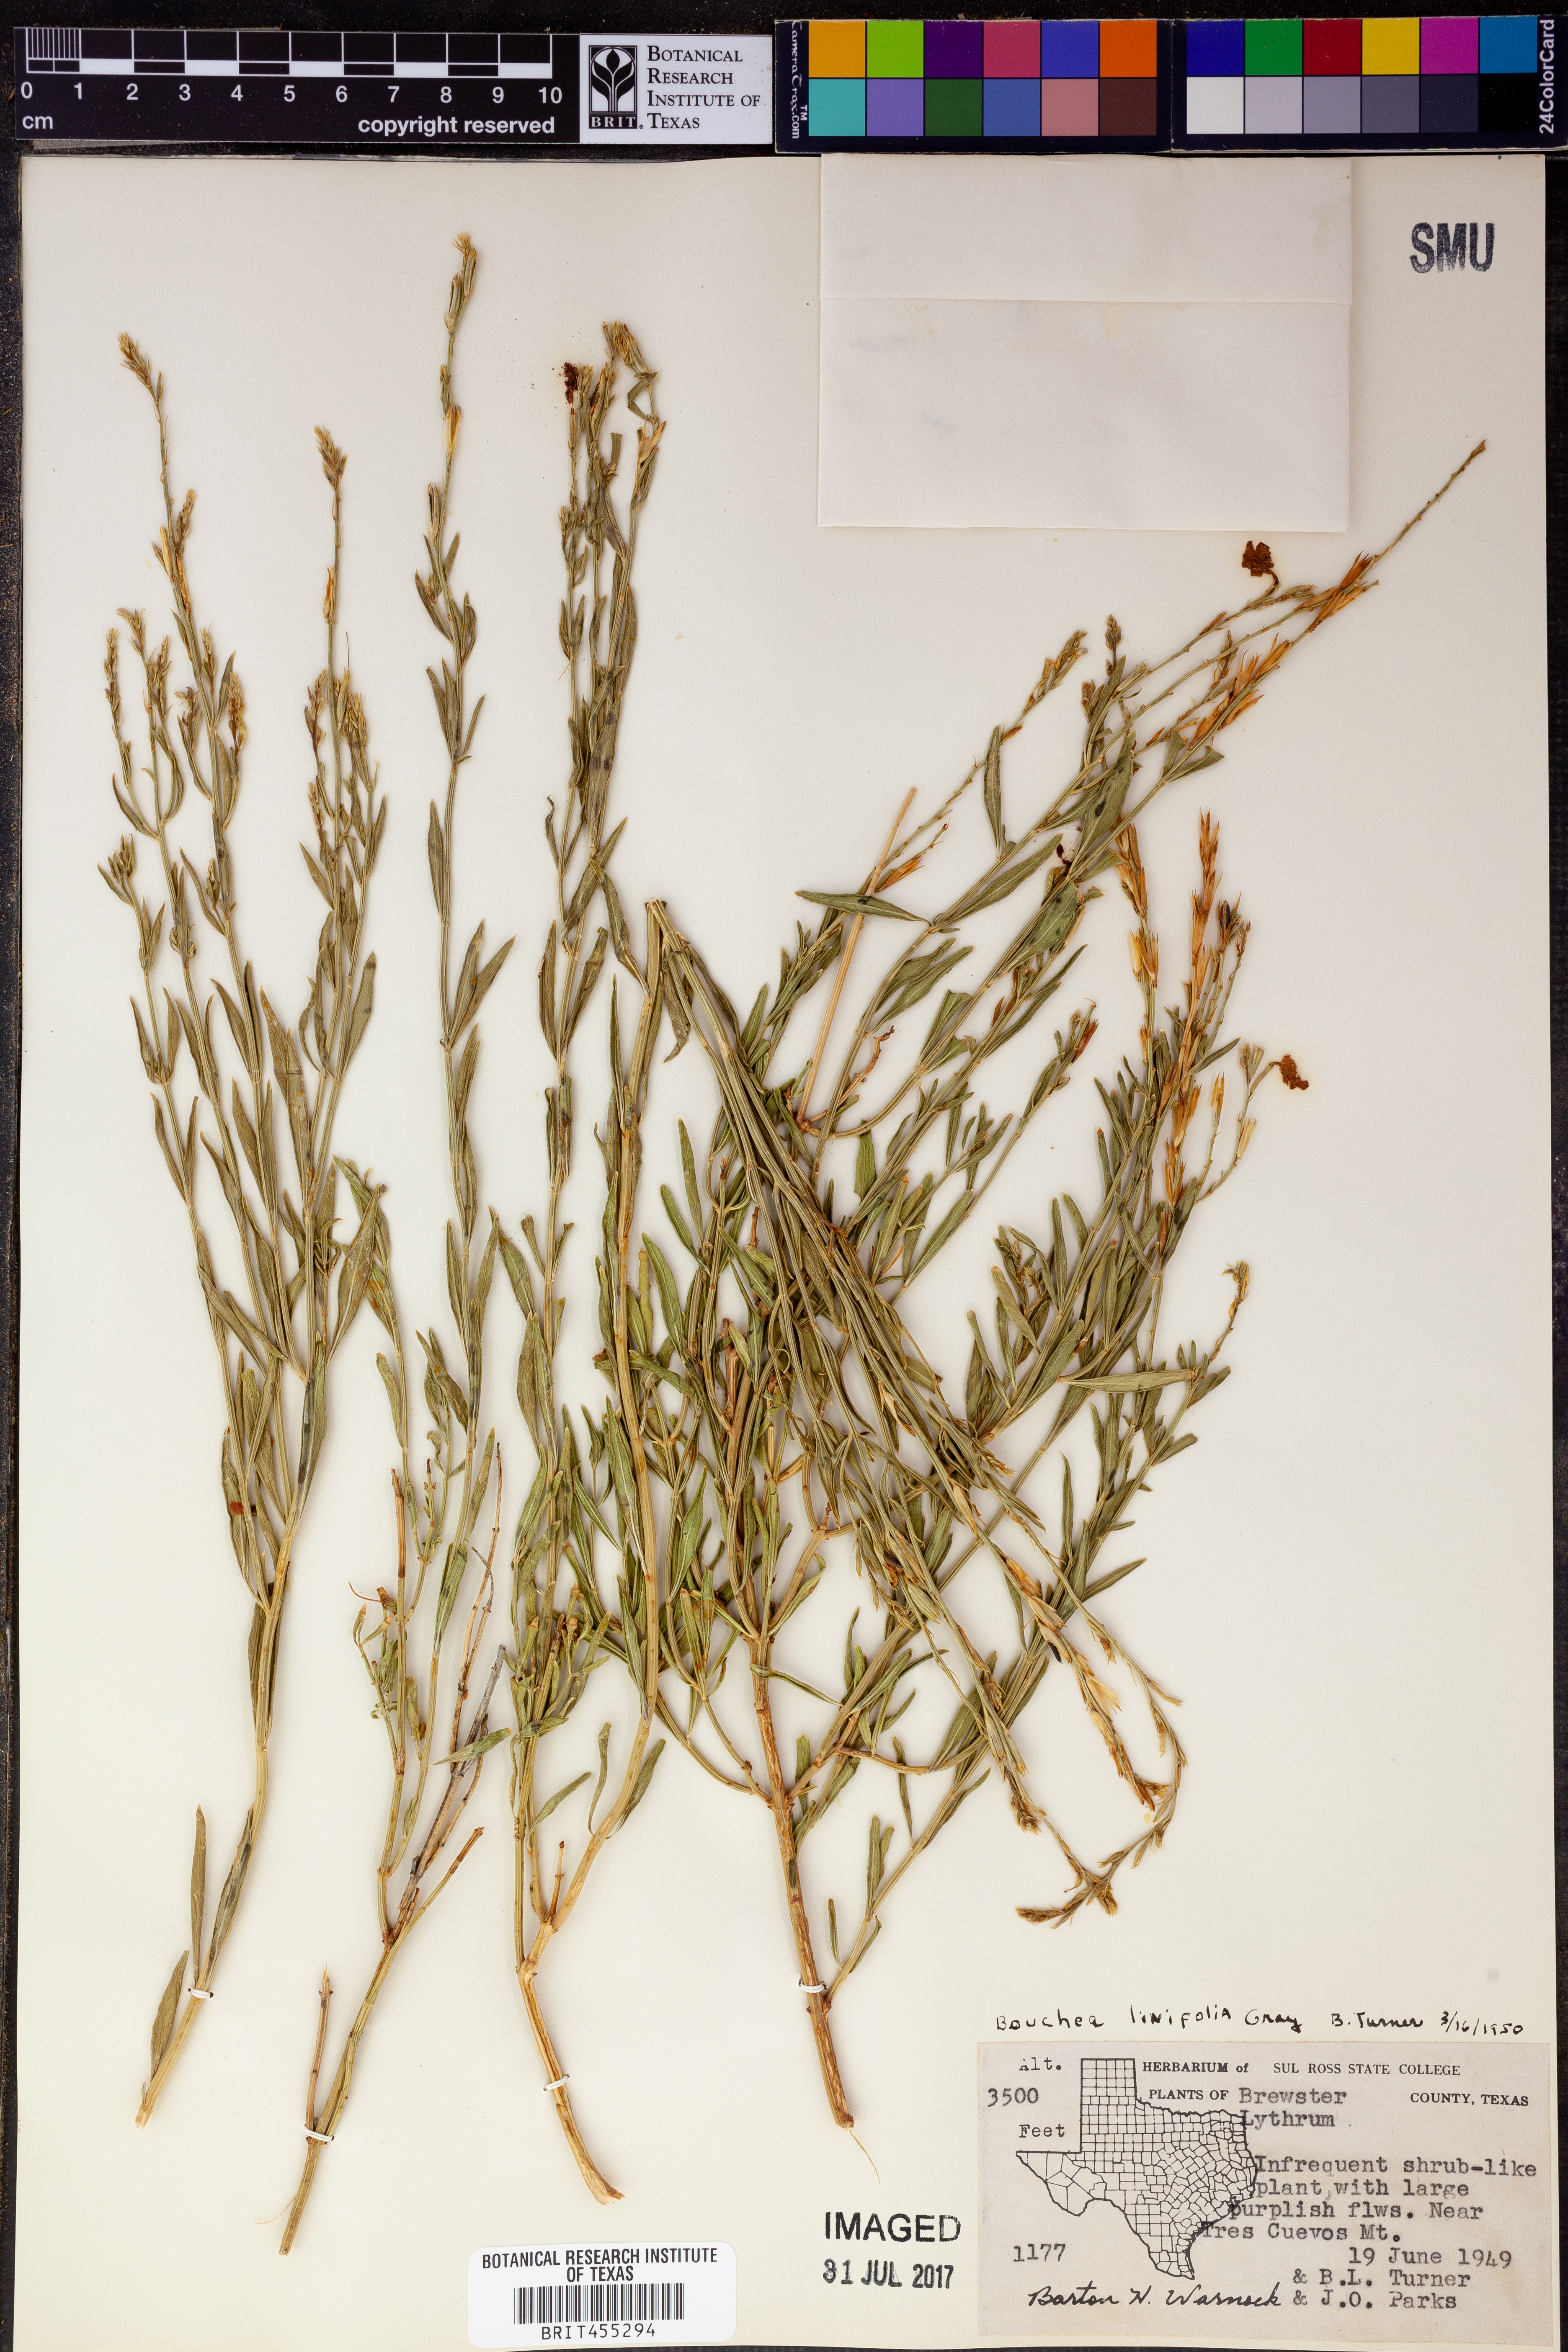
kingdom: Plantae
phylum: Tracheophyta
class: Magnoliopsida
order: Lamiales
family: Verbenaceae
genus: Bouchea
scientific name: Bouchea linifolia
